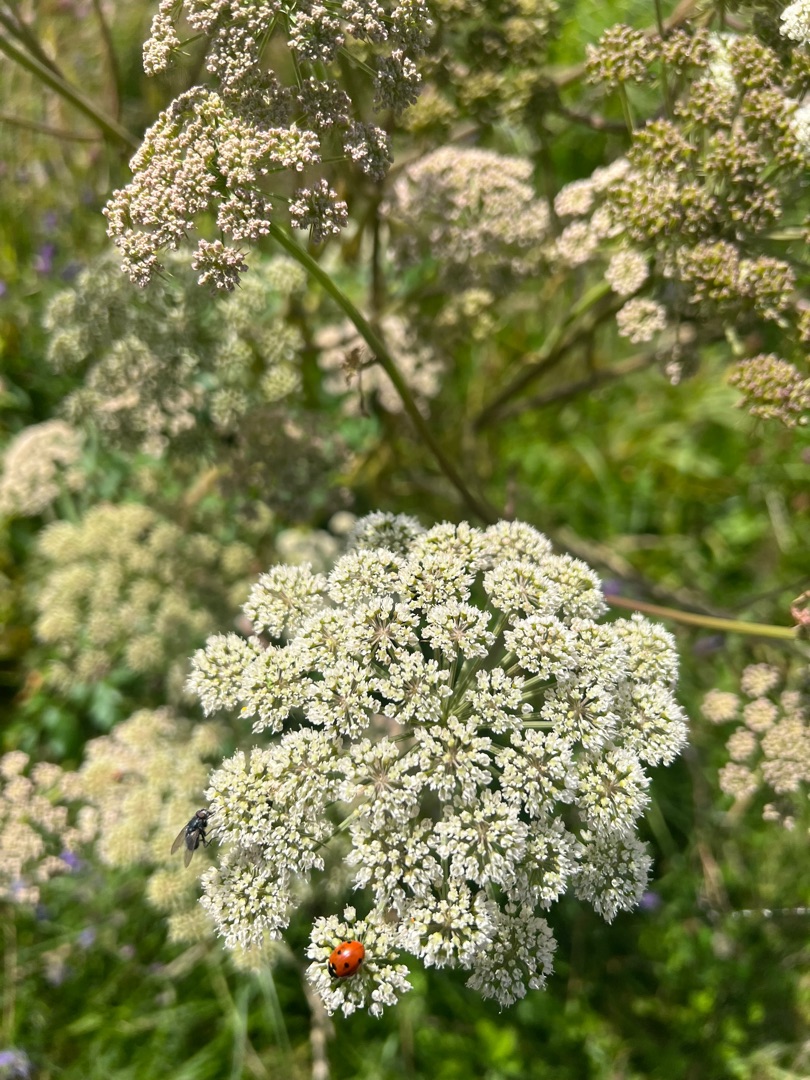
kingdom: Plantae
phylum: Tracheophyta
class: Magnoliopsida
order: Apiales
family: Apiaceae
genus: Angelica
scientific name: Angelica sylvestris
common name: Angelik
